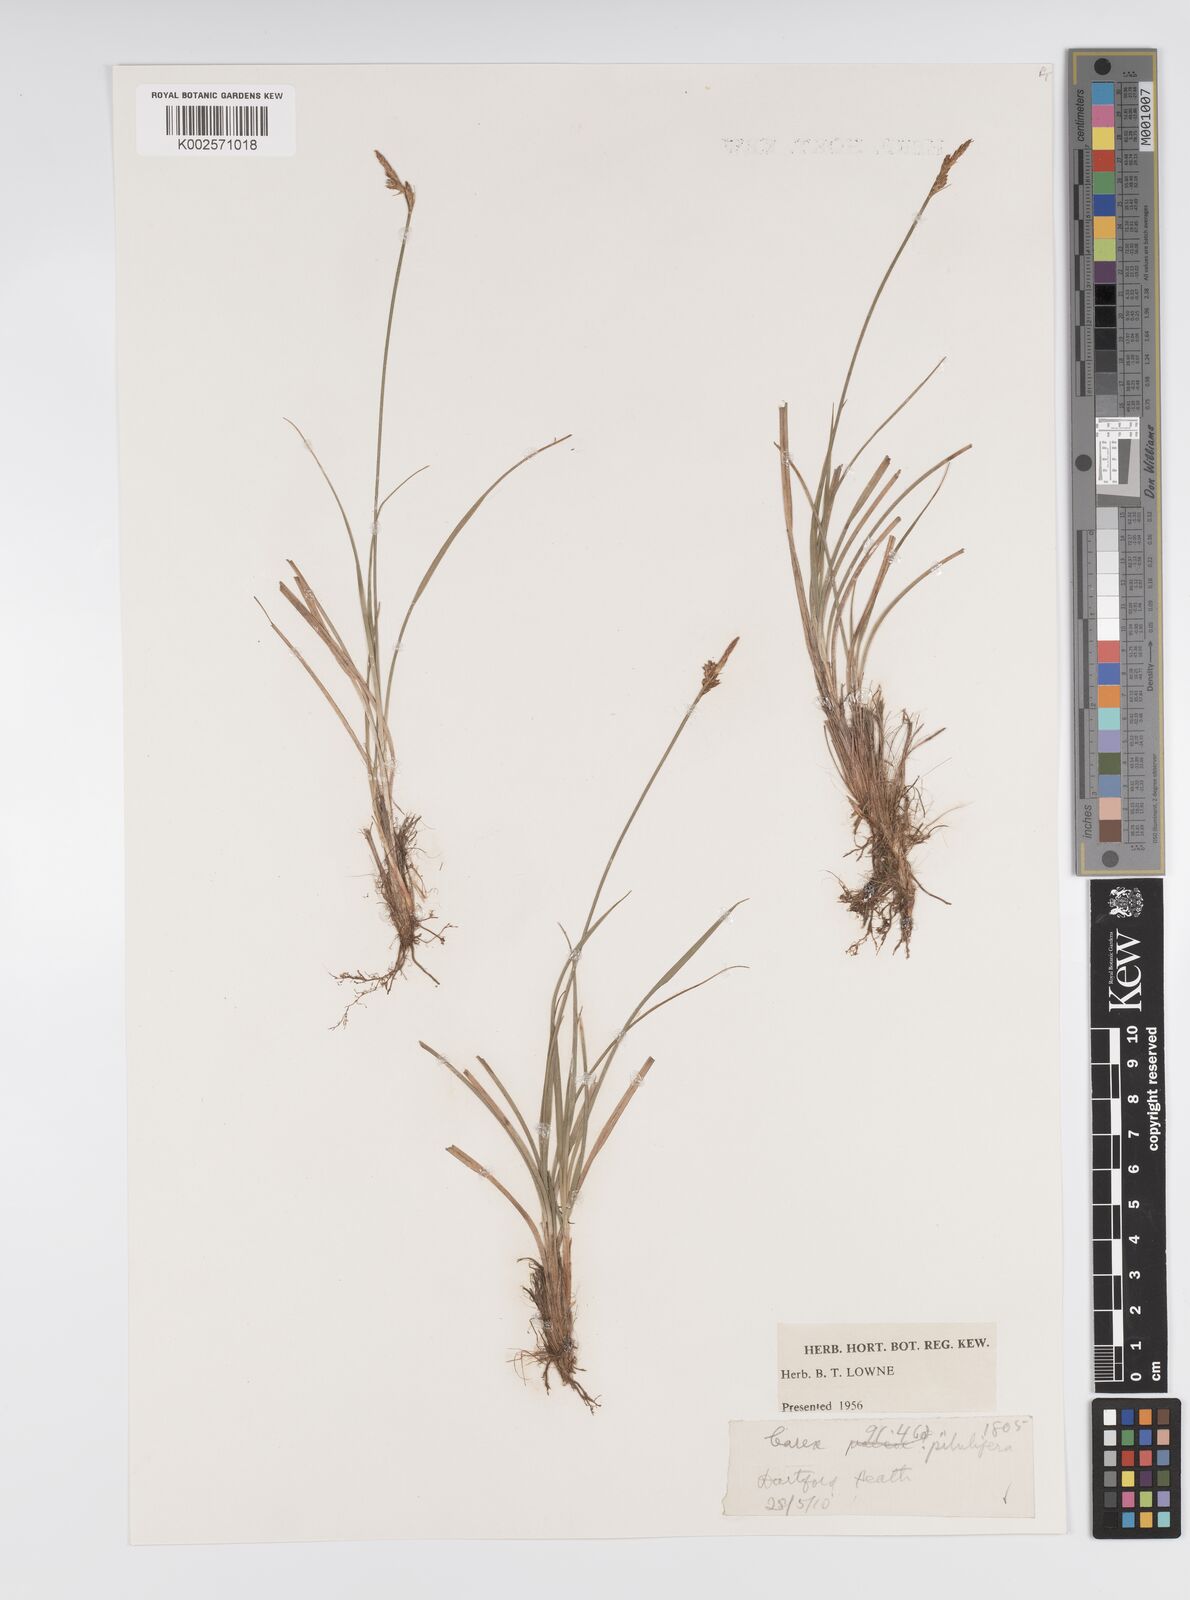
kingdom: Plantae
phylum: Tracheophyta
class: Liliopsida
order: Poales
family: Cyperaceae
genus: Carex
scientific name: Carex praecox
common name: Early sedge
